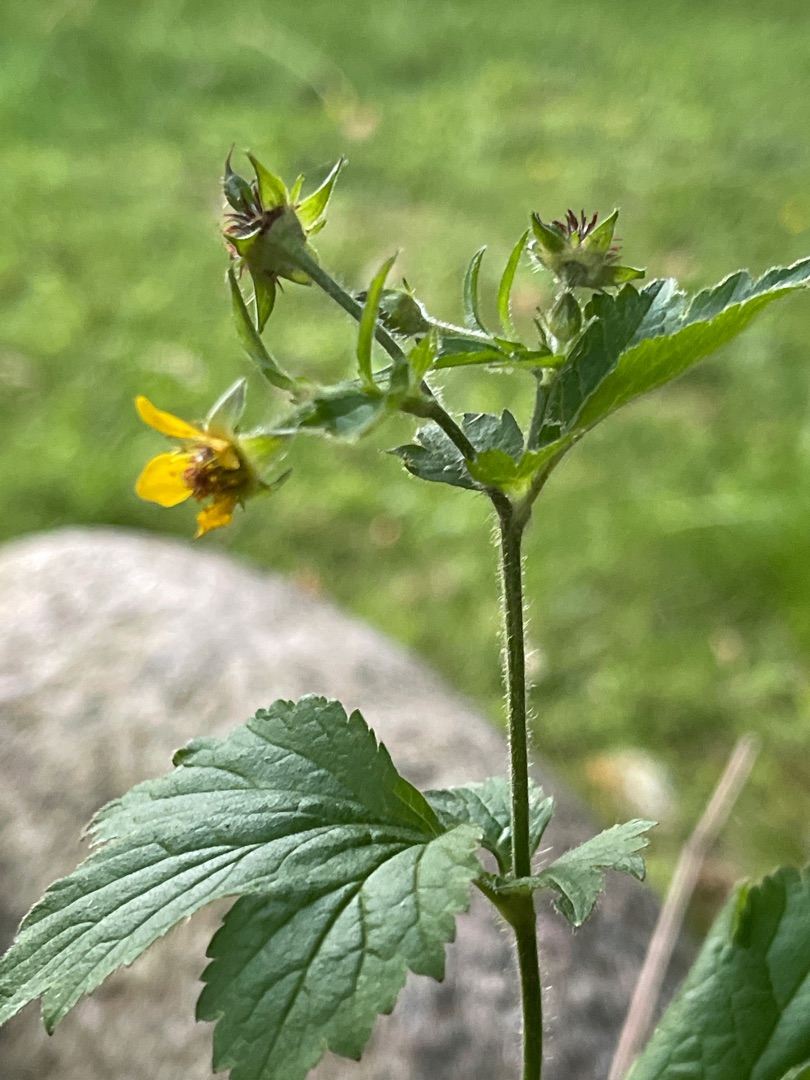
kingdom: Plantae
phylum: Tracheophyta
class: Magnoliopsida
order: Rosales
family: Rosaceae
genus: Geum
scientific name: Geum urbanum
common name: Feber-nellikerod
